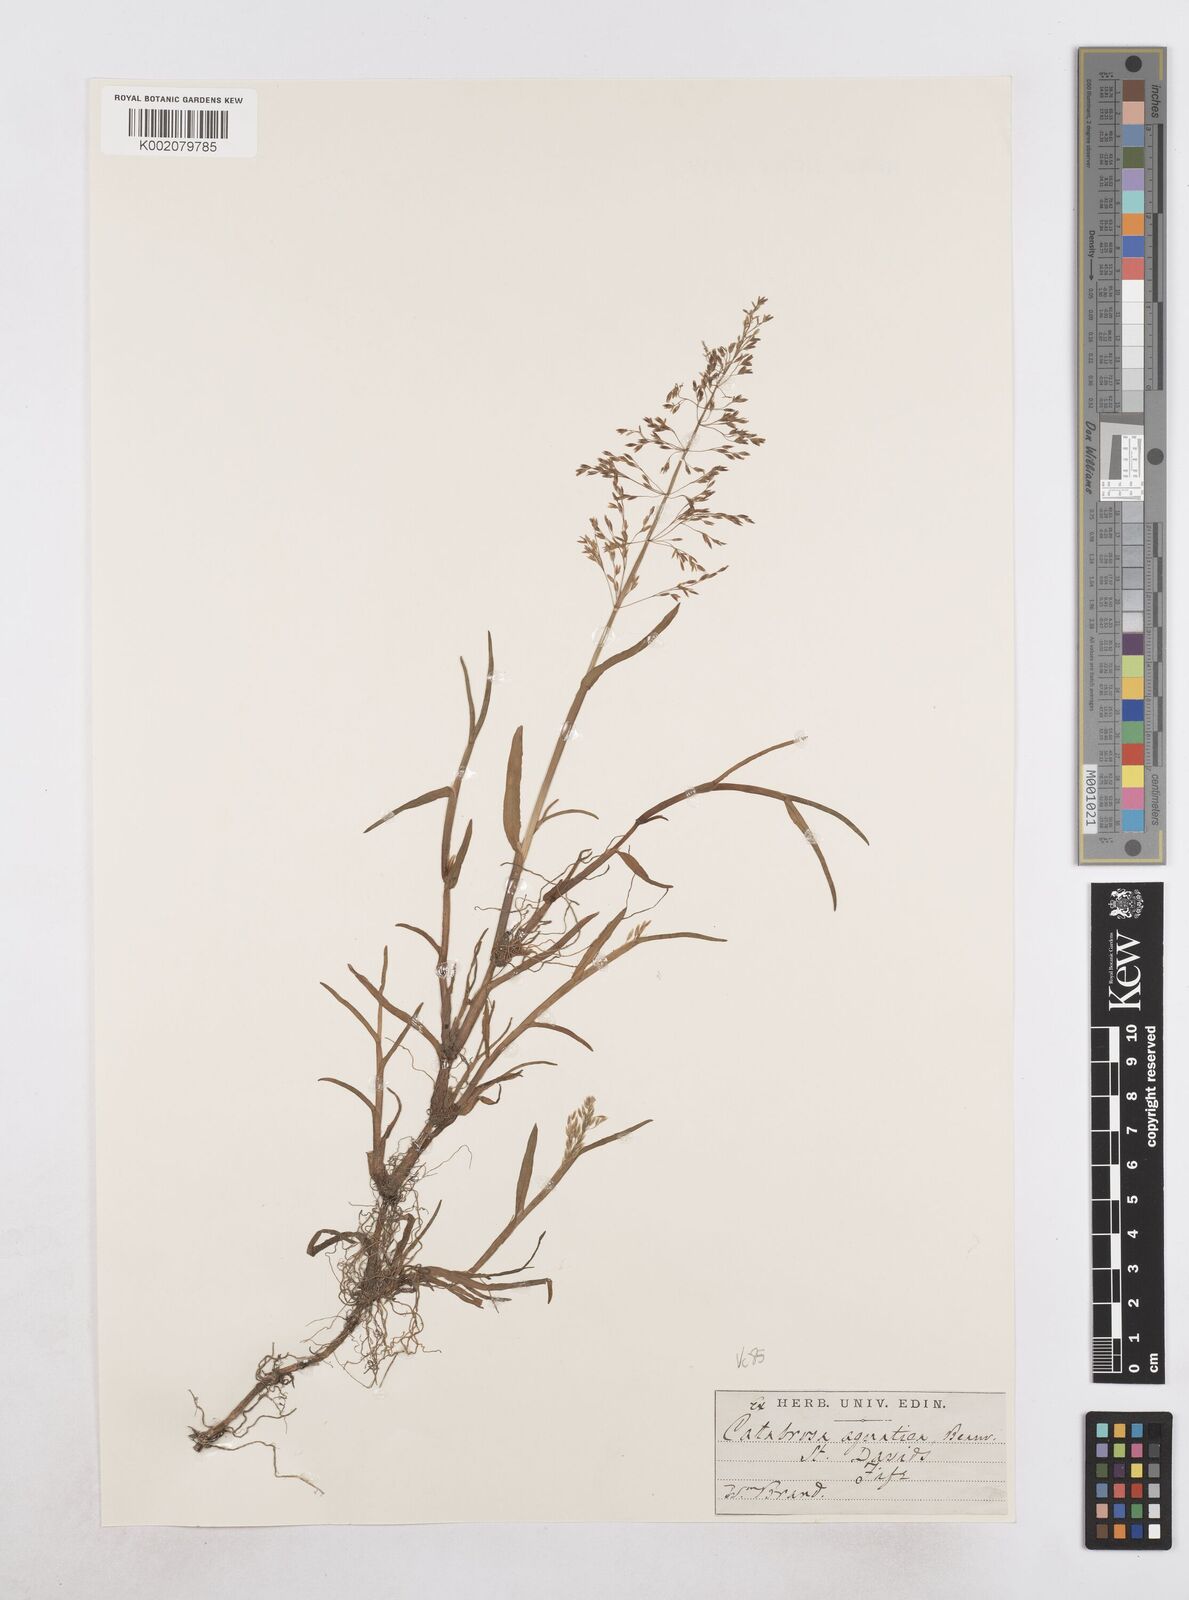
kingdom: Plantae
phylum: Tracheophyta
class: Liliopsida
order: Poales
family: Poaceae
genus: Catabrosa
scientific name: Catabrosa aquatica
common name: Whorl-grass
